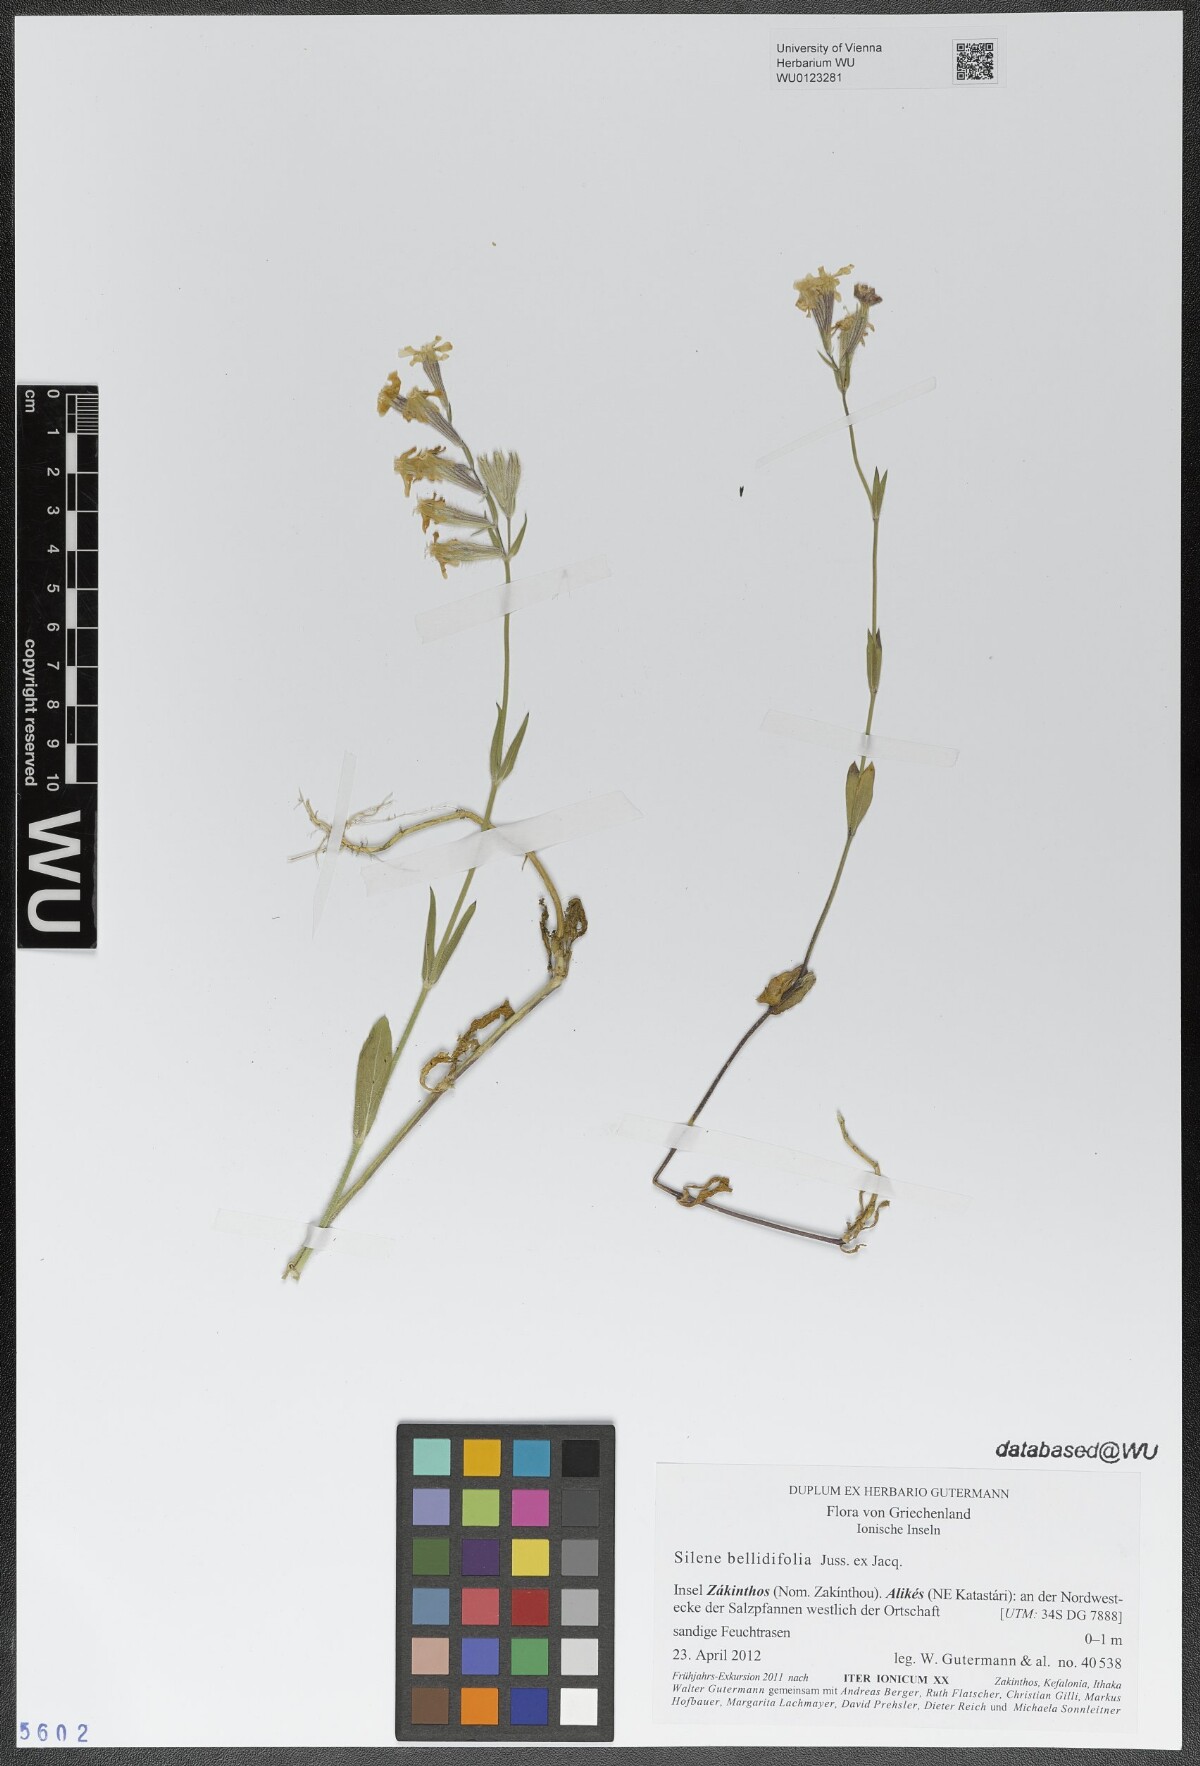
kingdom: Plantae
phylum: Tracheophyta
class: Magnoliopsida
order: Caryophyllales
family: Caryophyllaceae
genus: Silene
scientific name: Silene bellidifolia
